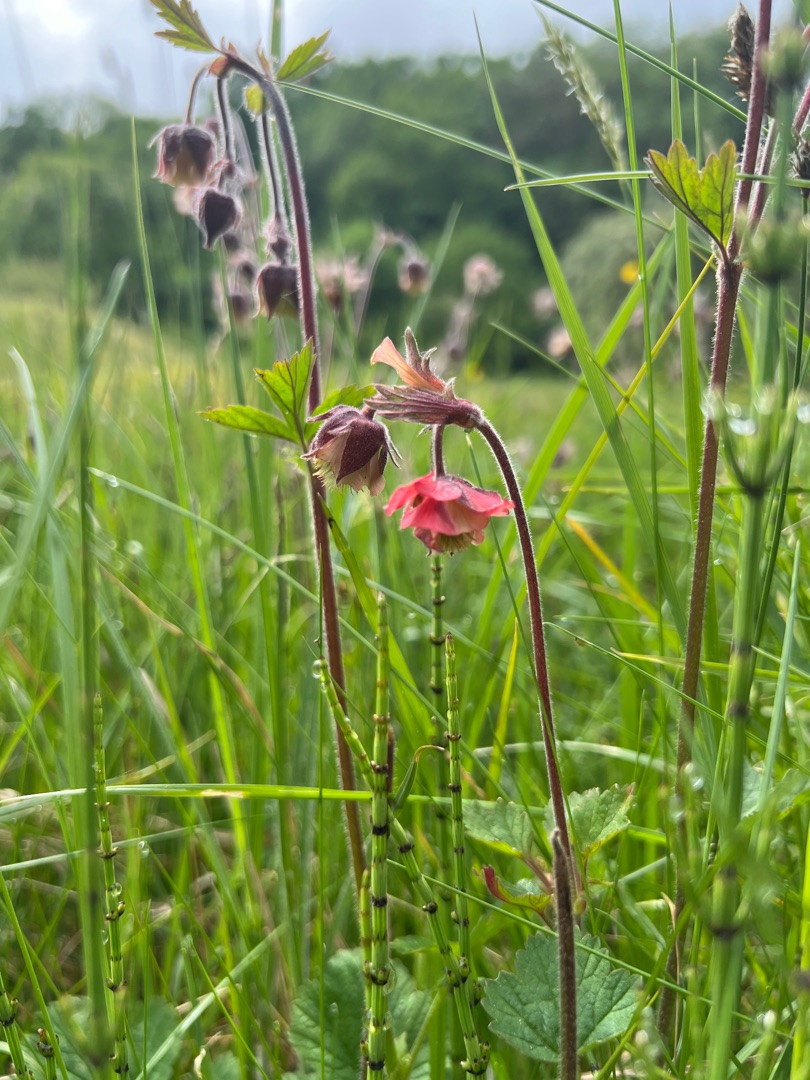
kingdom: Plantae
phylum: Tracheophyta
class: Magnoliopsida
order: Rosales
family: Rosaceae
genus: Geum
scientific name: Geum rivale
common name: Eng-nellikerod
